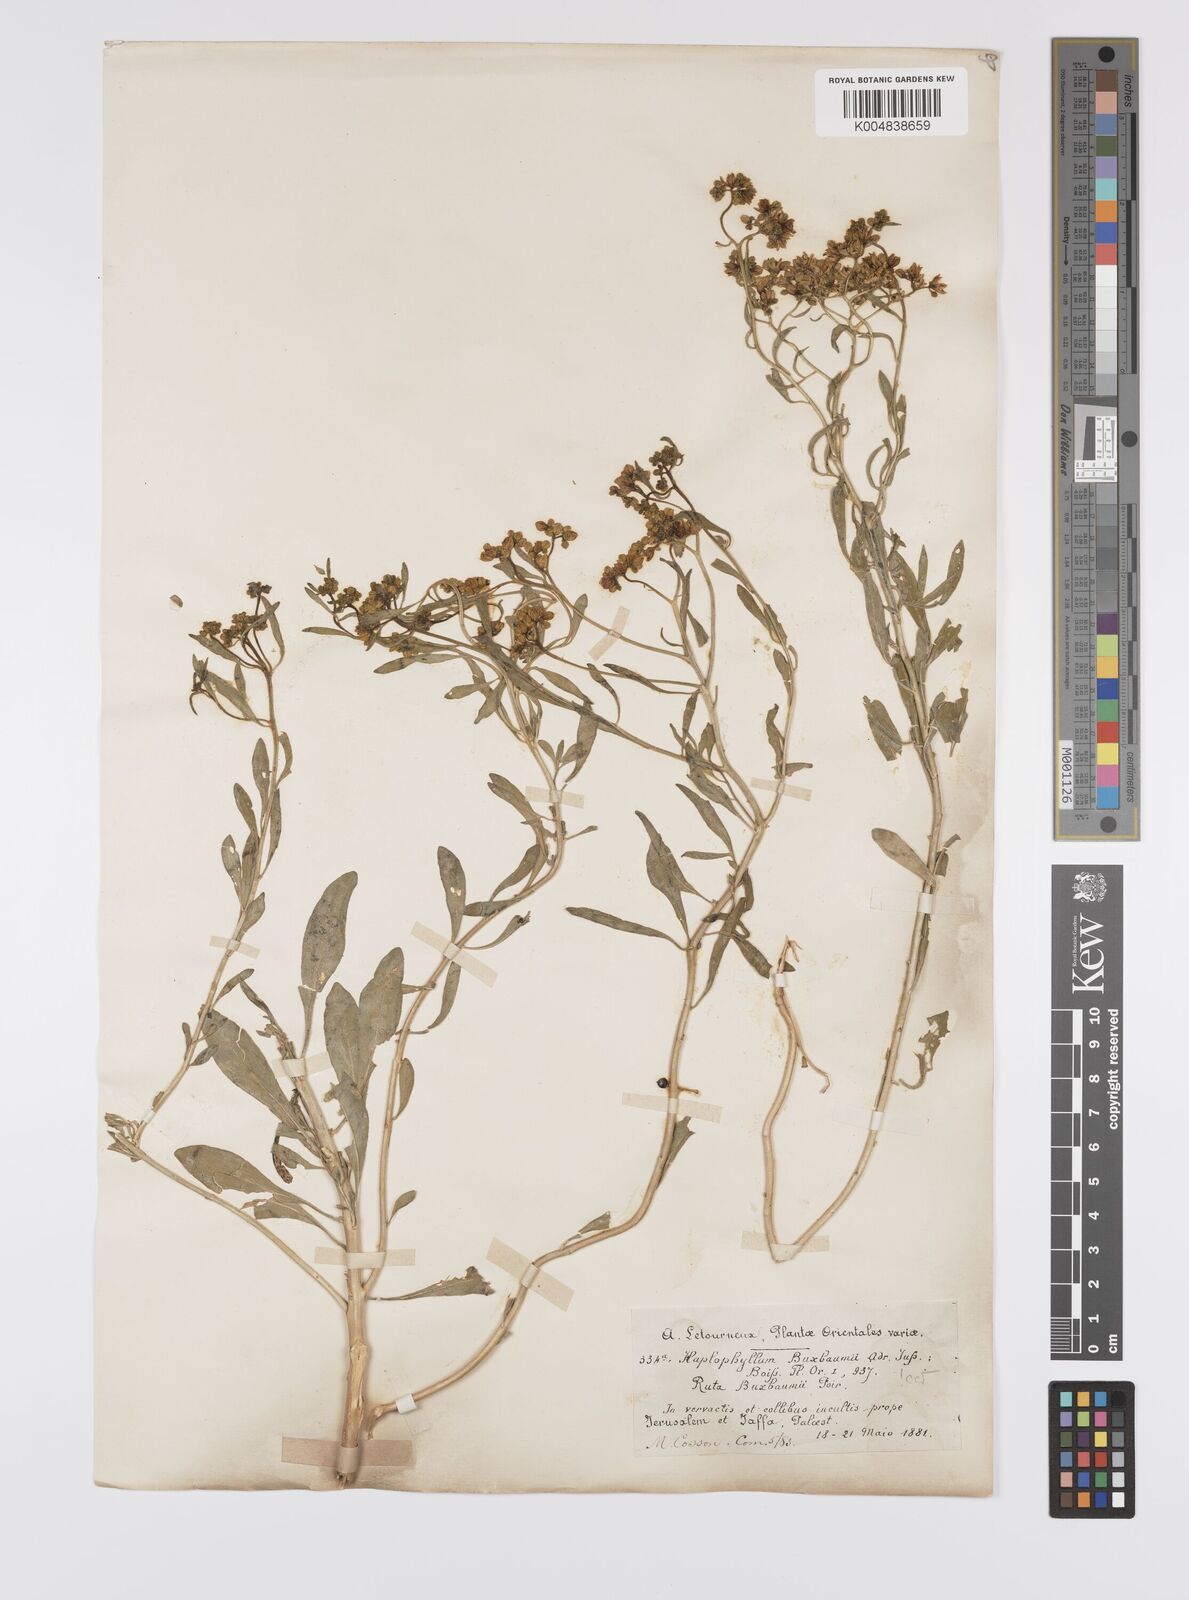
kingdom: Plantae
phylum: Tracheophyta
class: Magnoliopsida
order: Sapindales
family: Rutaceae
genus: Haplophyllum
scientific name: Haplophyllum
